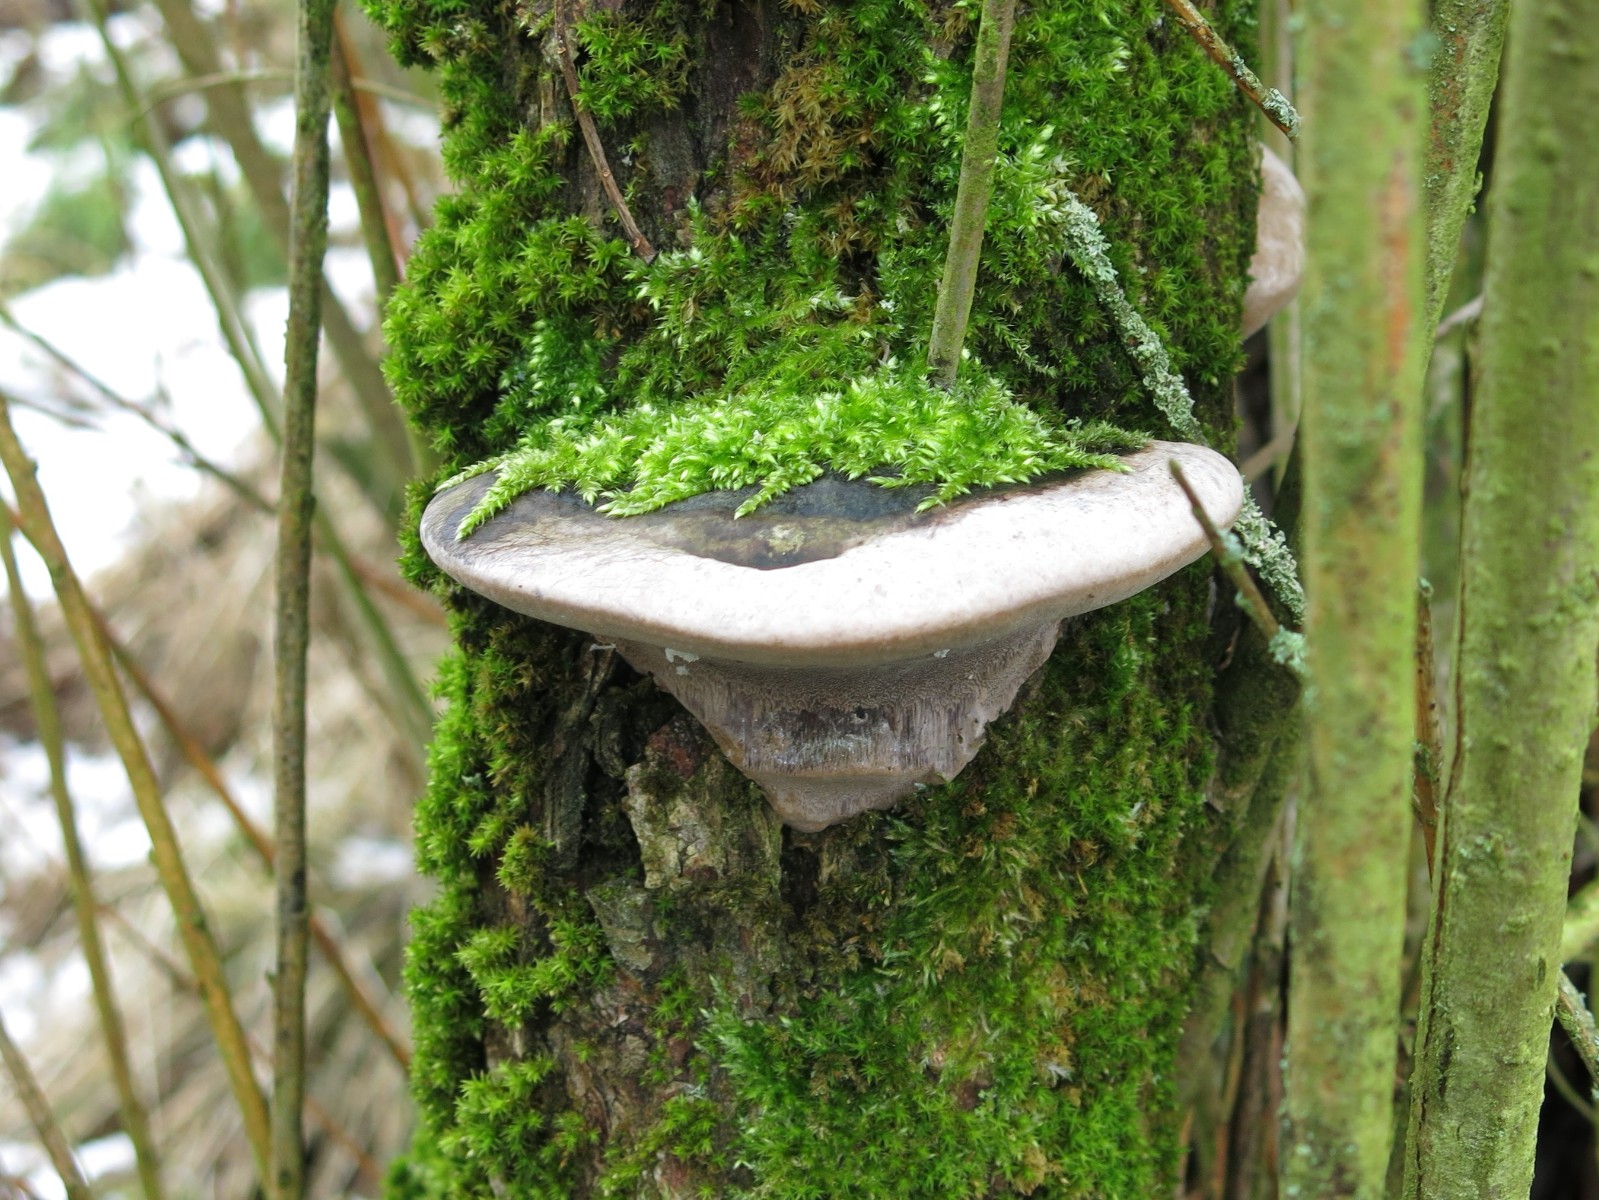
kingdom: Fungi
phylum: Basidiomycota
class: Agaricomycetes
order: Hymenochaetales
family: Hymenochaetaceae
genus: Phellinus
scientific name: Phellinus igniarius
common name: almindelig ildporesvamp
